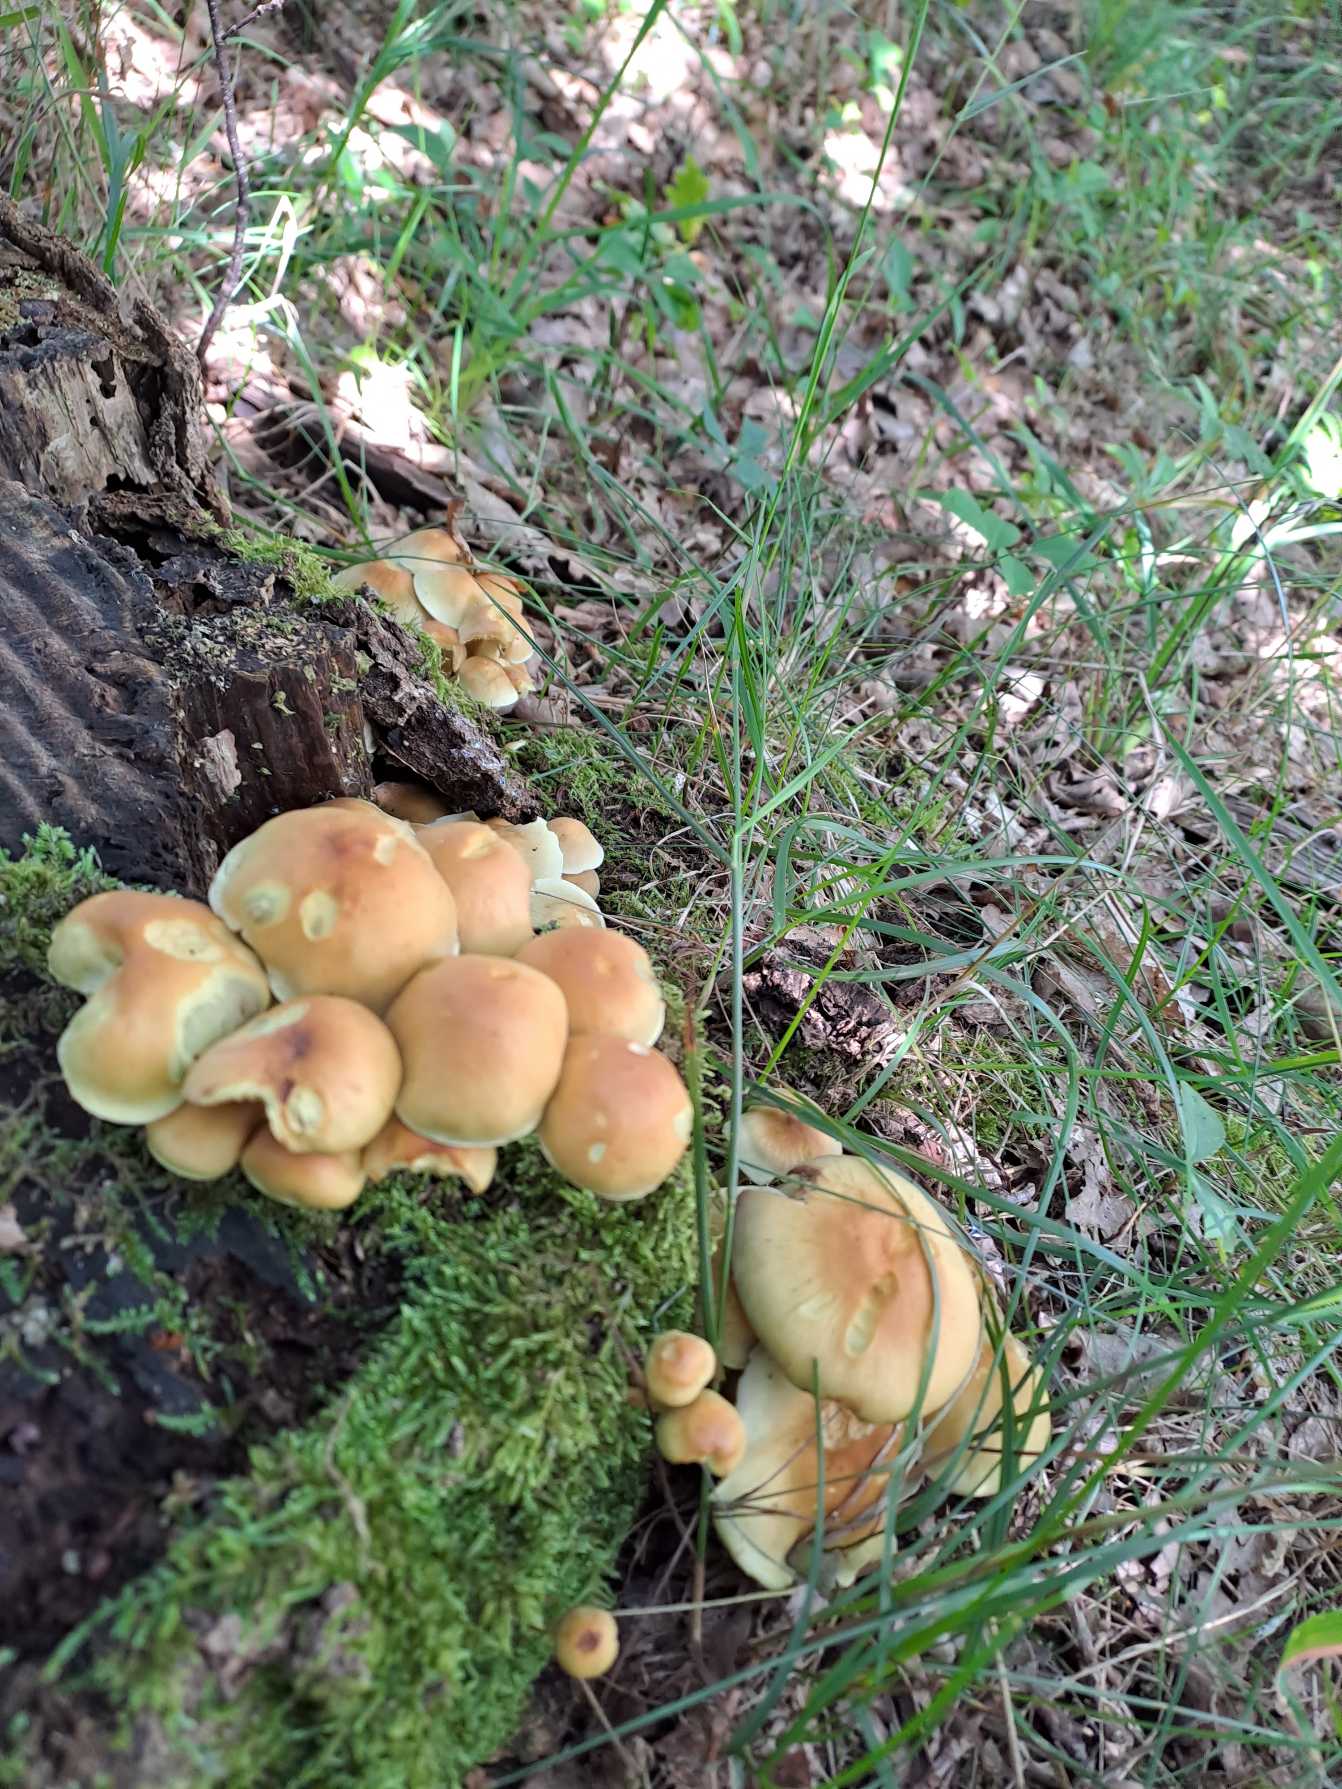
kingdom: Fungi
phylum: Basidiomycota
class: Agaricomycetes
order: Agaricales
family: Strophariaceae
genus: Hypholoma
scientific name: Hypholoma fasciculare
